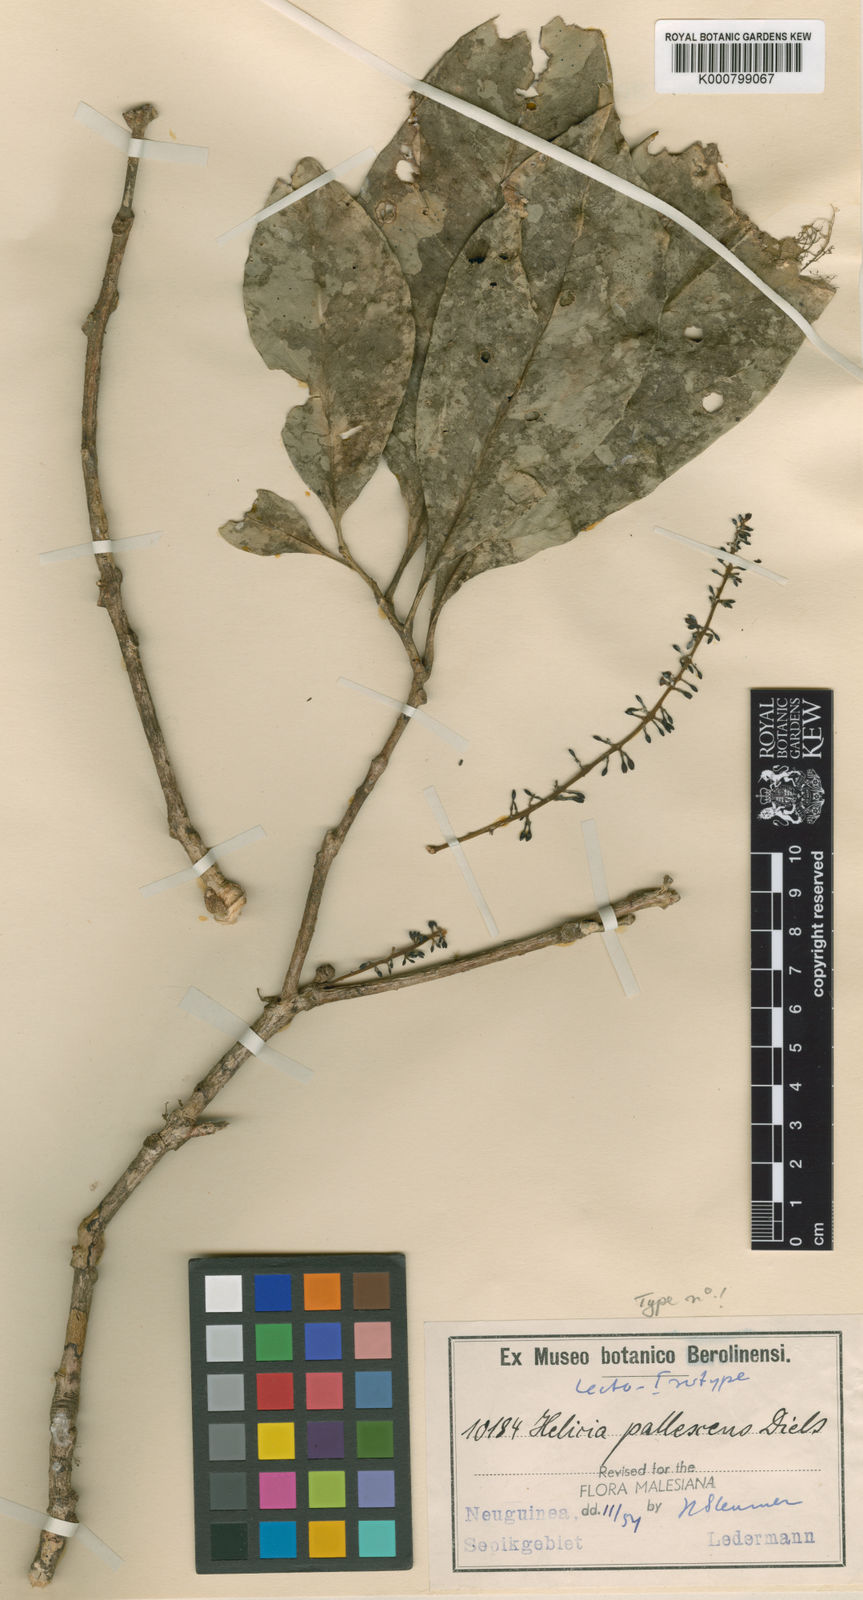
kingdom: Plantae
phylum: Tracheophyta
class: Magnoliopsida
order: Proteales
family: Proteaceae
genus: Helicia
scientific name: Helicia pallescens
